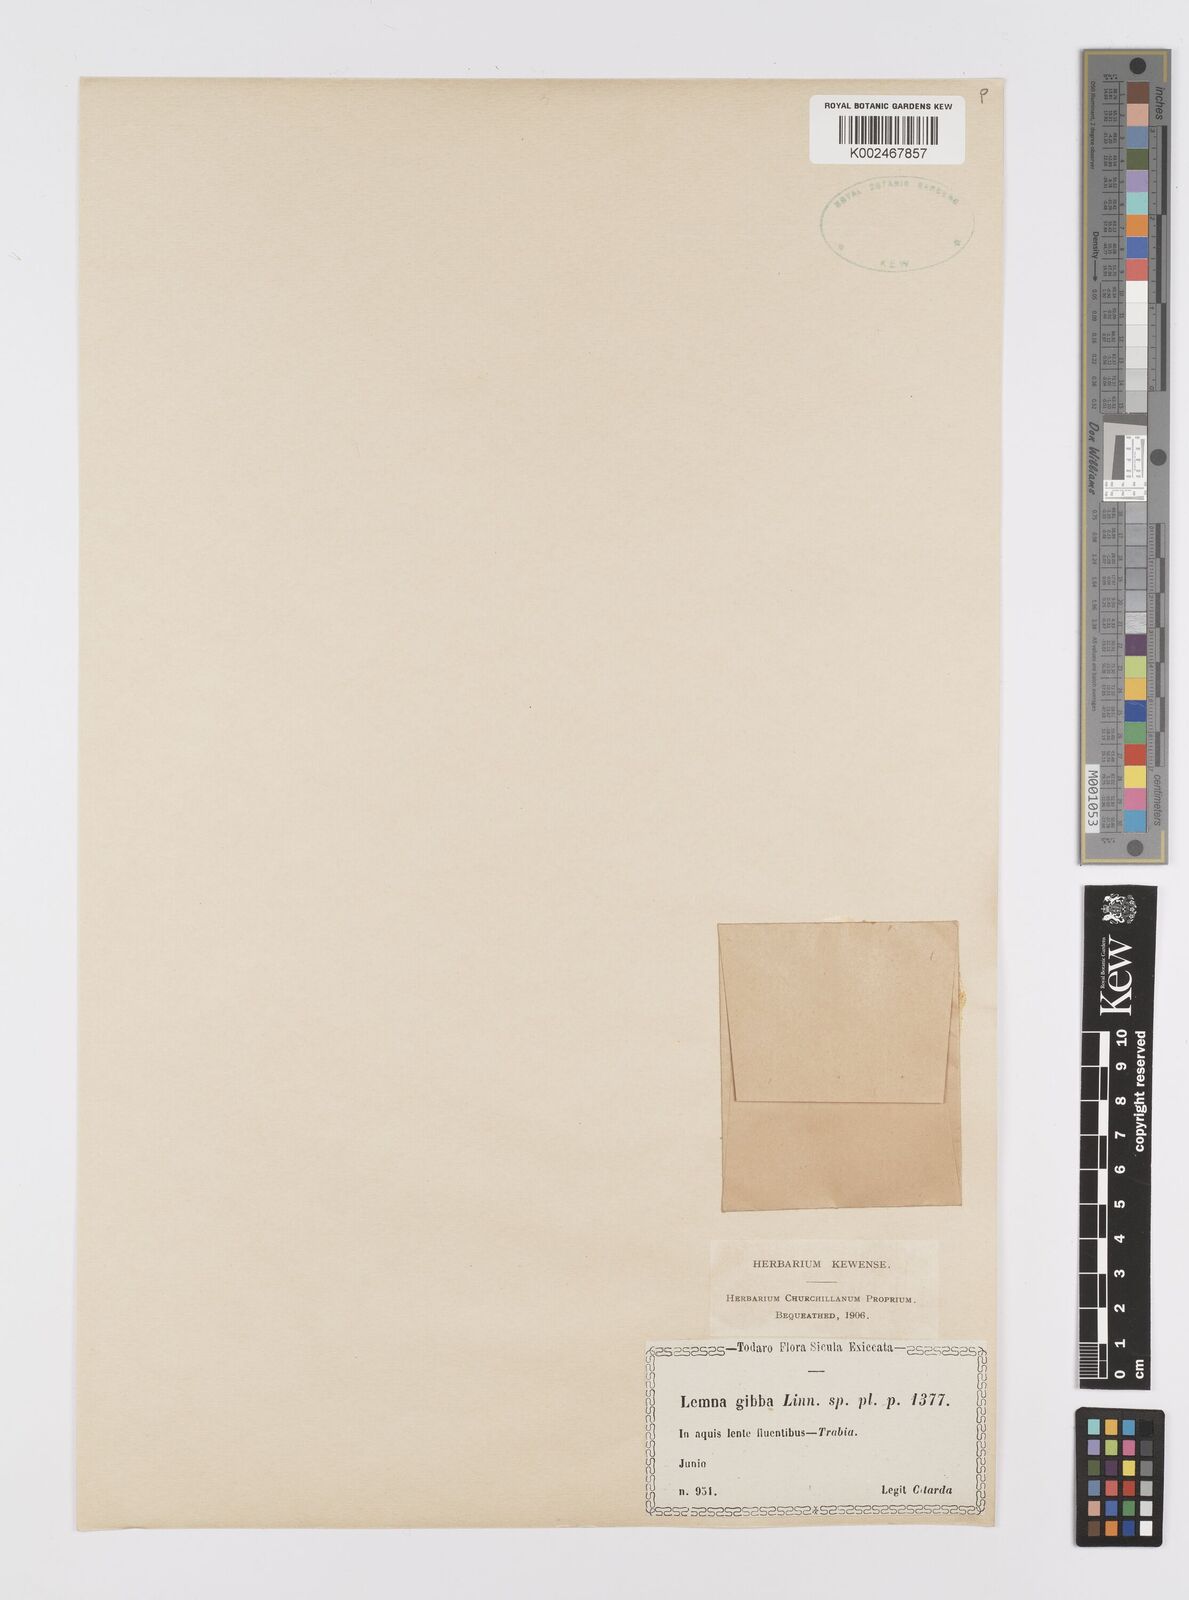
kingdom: Plantae
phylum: Tracheophyta
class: Liliopsida
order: Alismatales
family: Araceae
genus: Lemna
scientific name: Lemna gibba
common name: Fat duckweed
